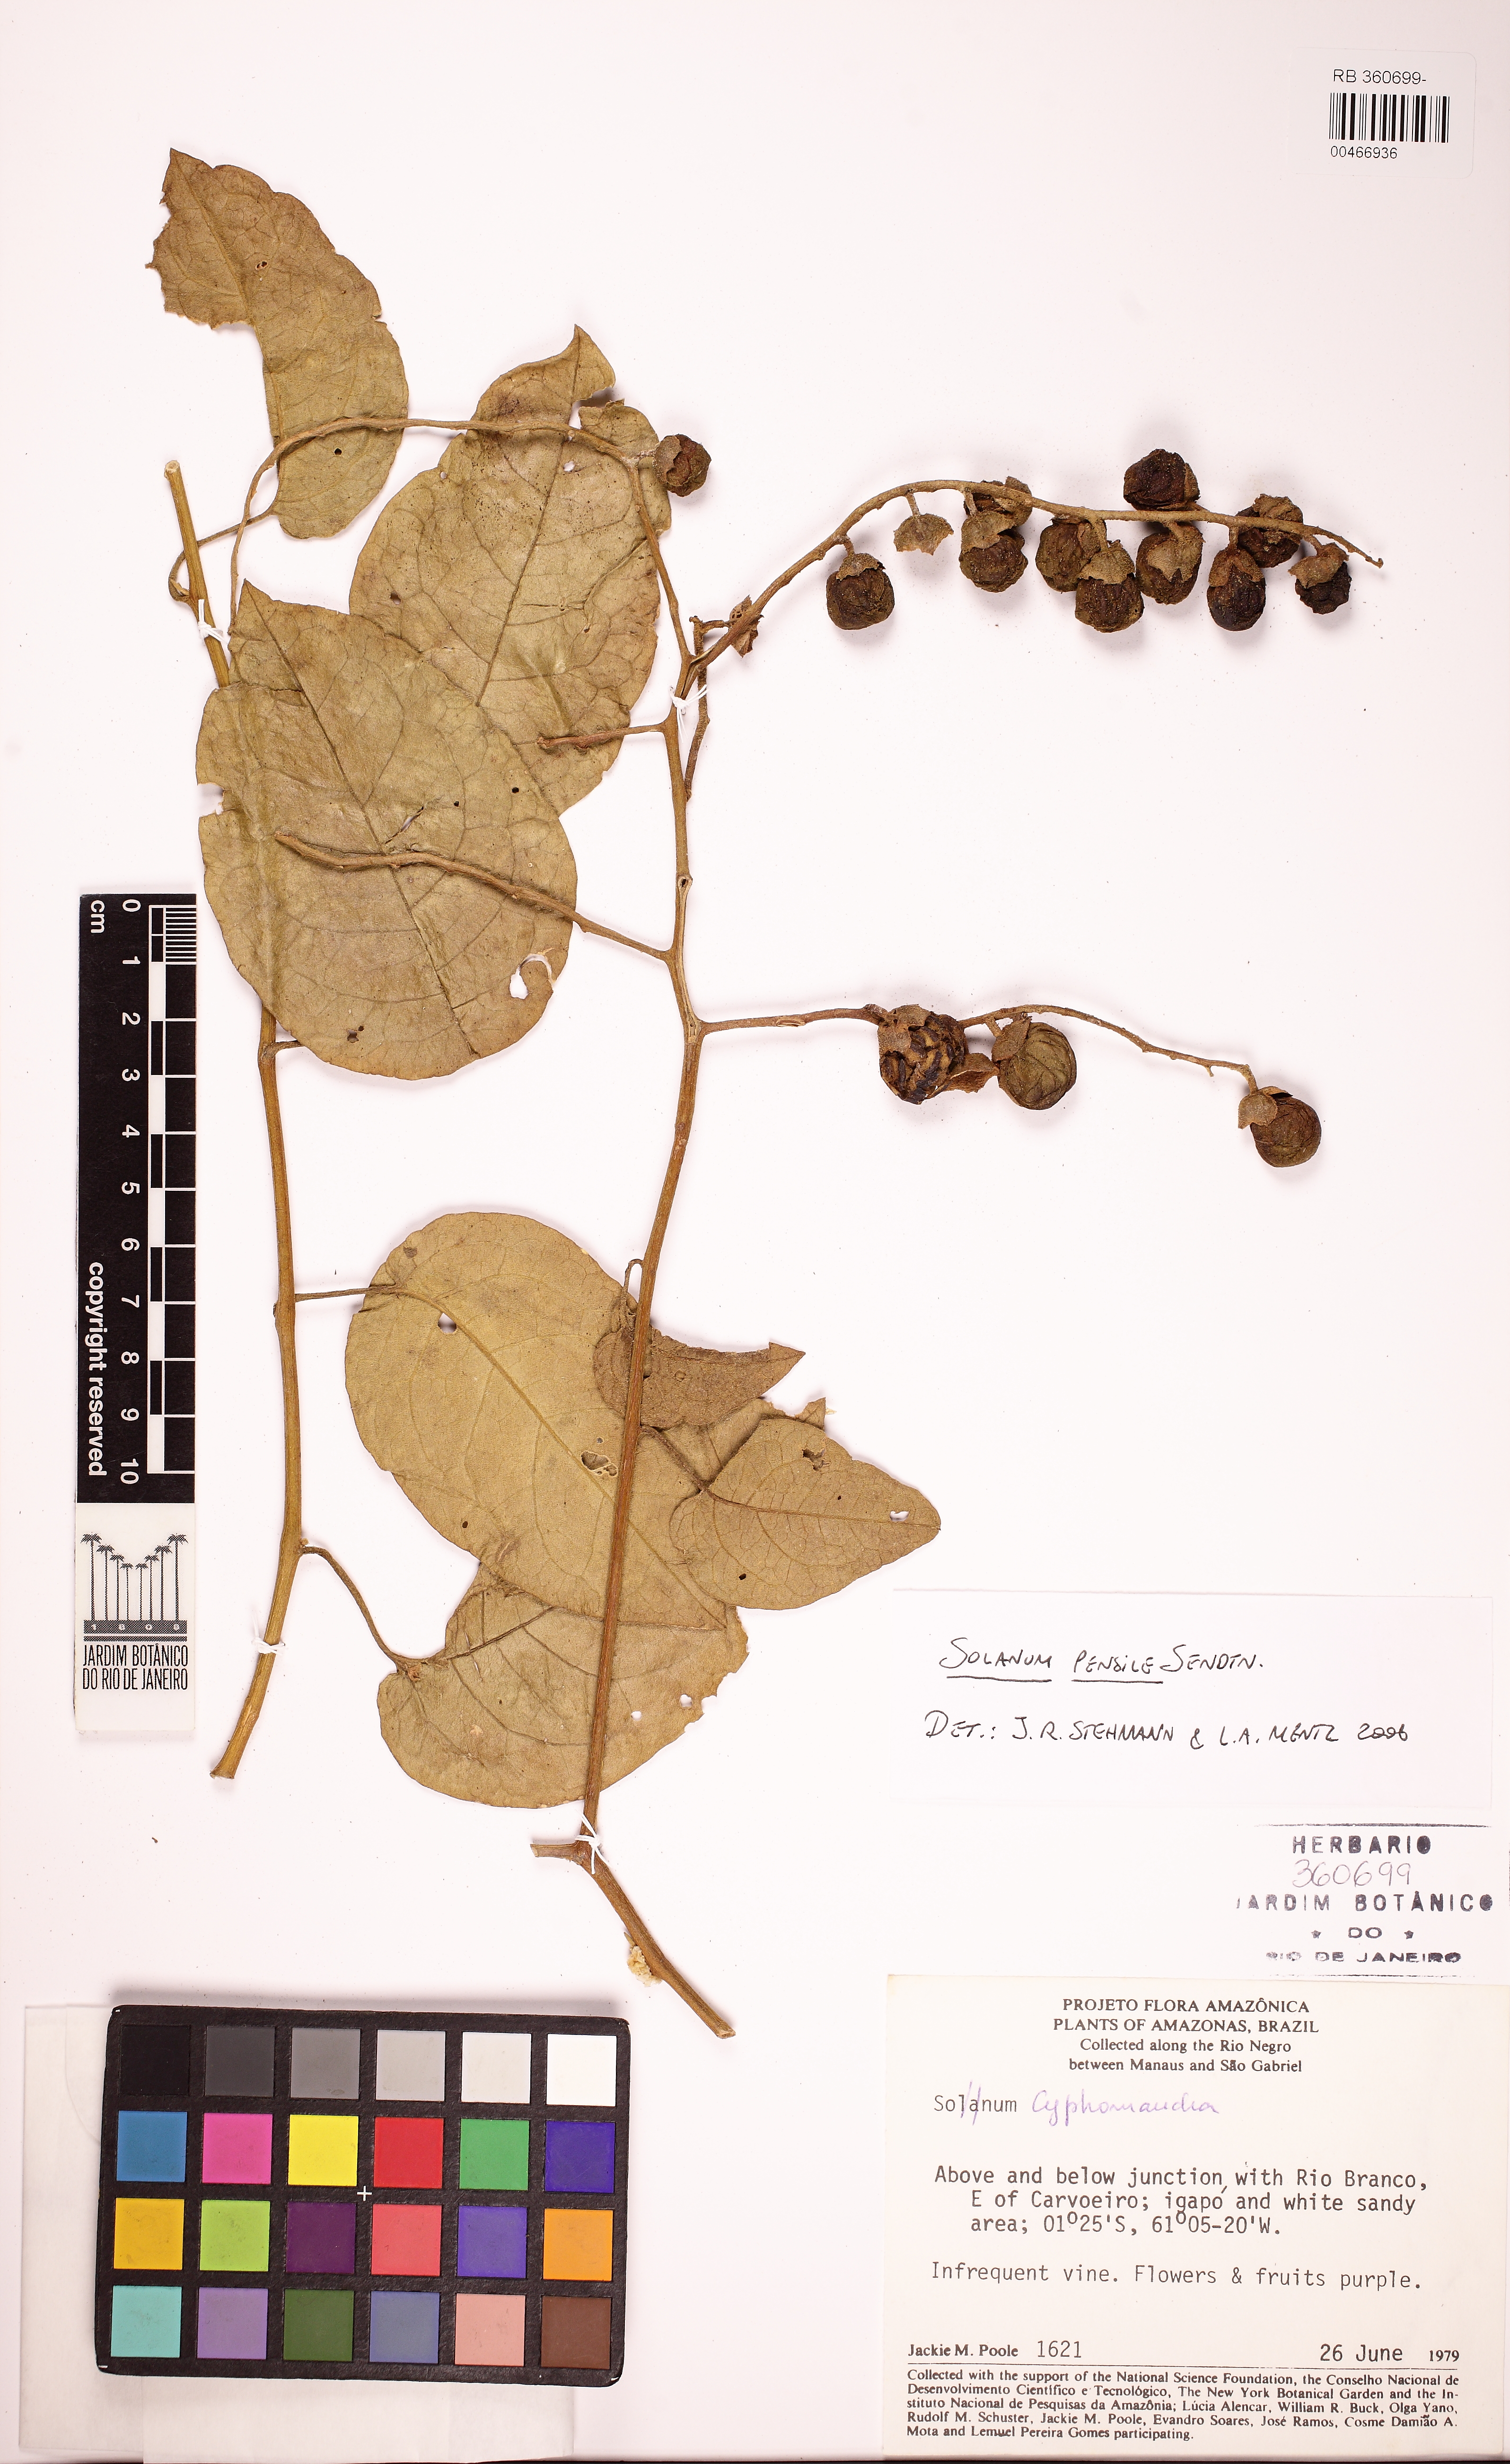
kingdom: Plantae
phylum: Tracheophyta
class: Magnoliopsida
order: Solanales
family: Solanaceae
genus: Solanum
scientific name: Solanum uncinellum
